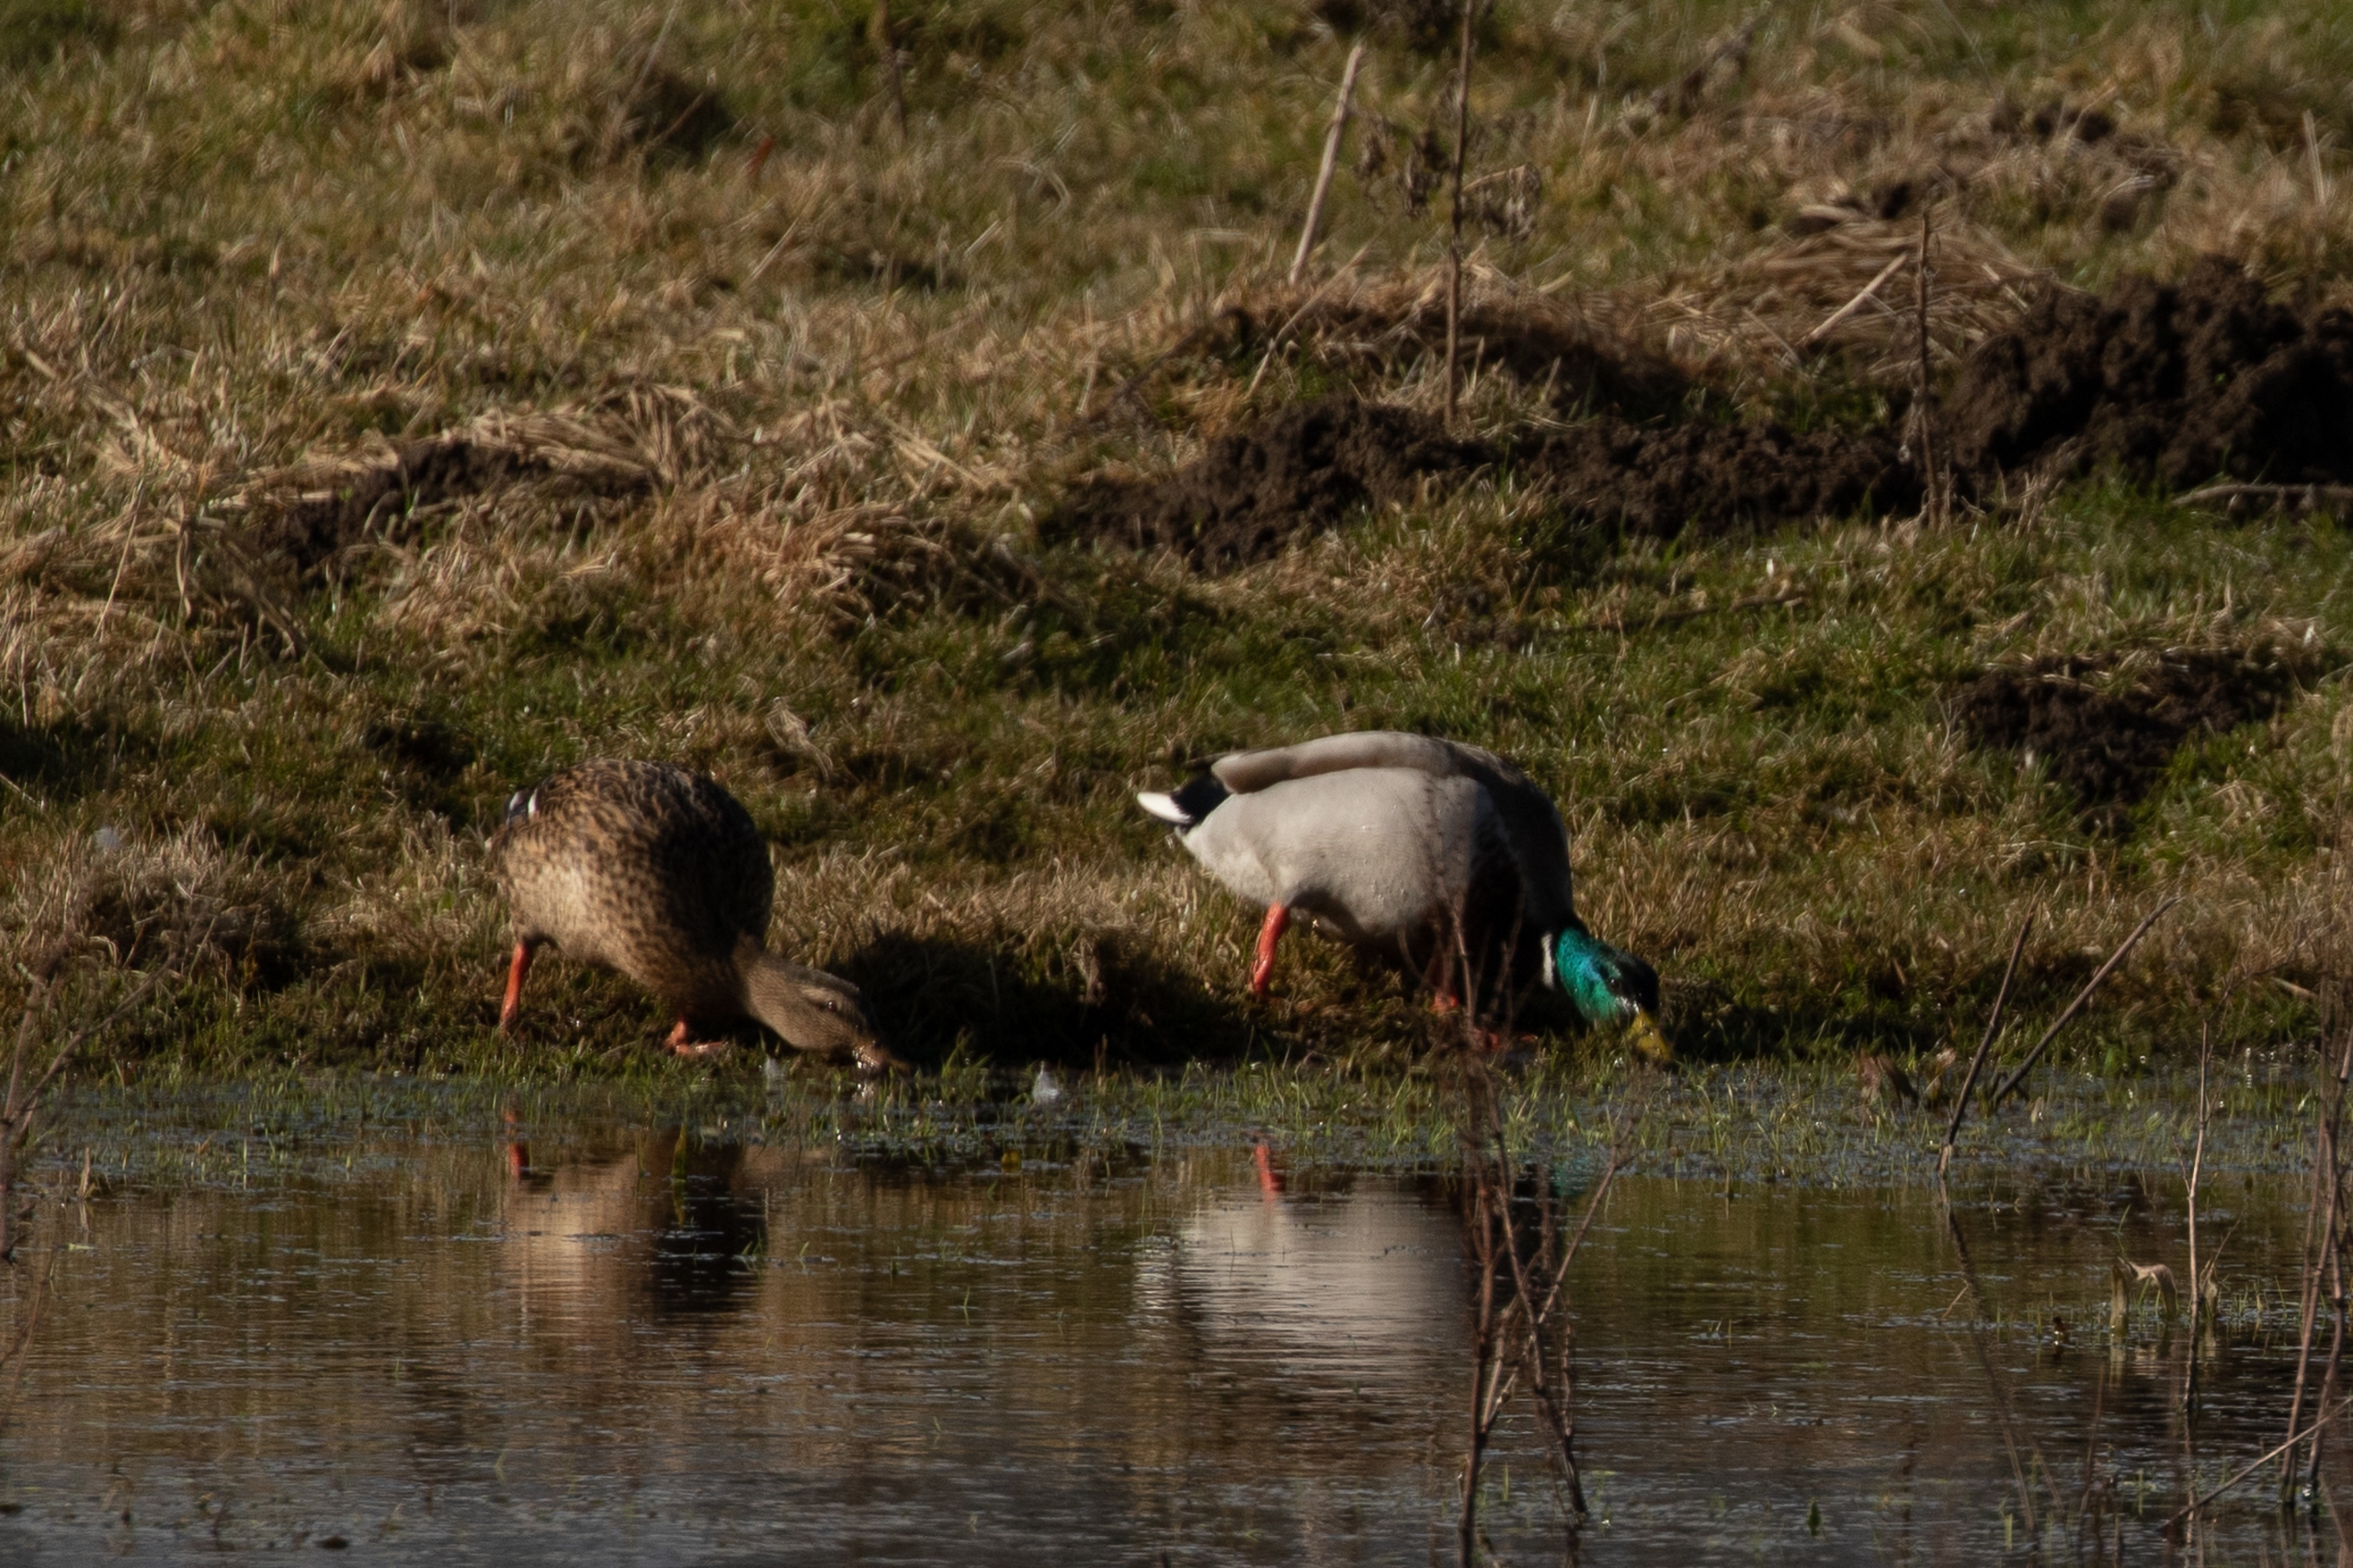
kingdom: Animalia
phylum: Chordata
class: Aves
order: Anseriformes
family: Anatidae
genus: Anas
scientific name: Anas platyrhynchos
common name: Gråand
